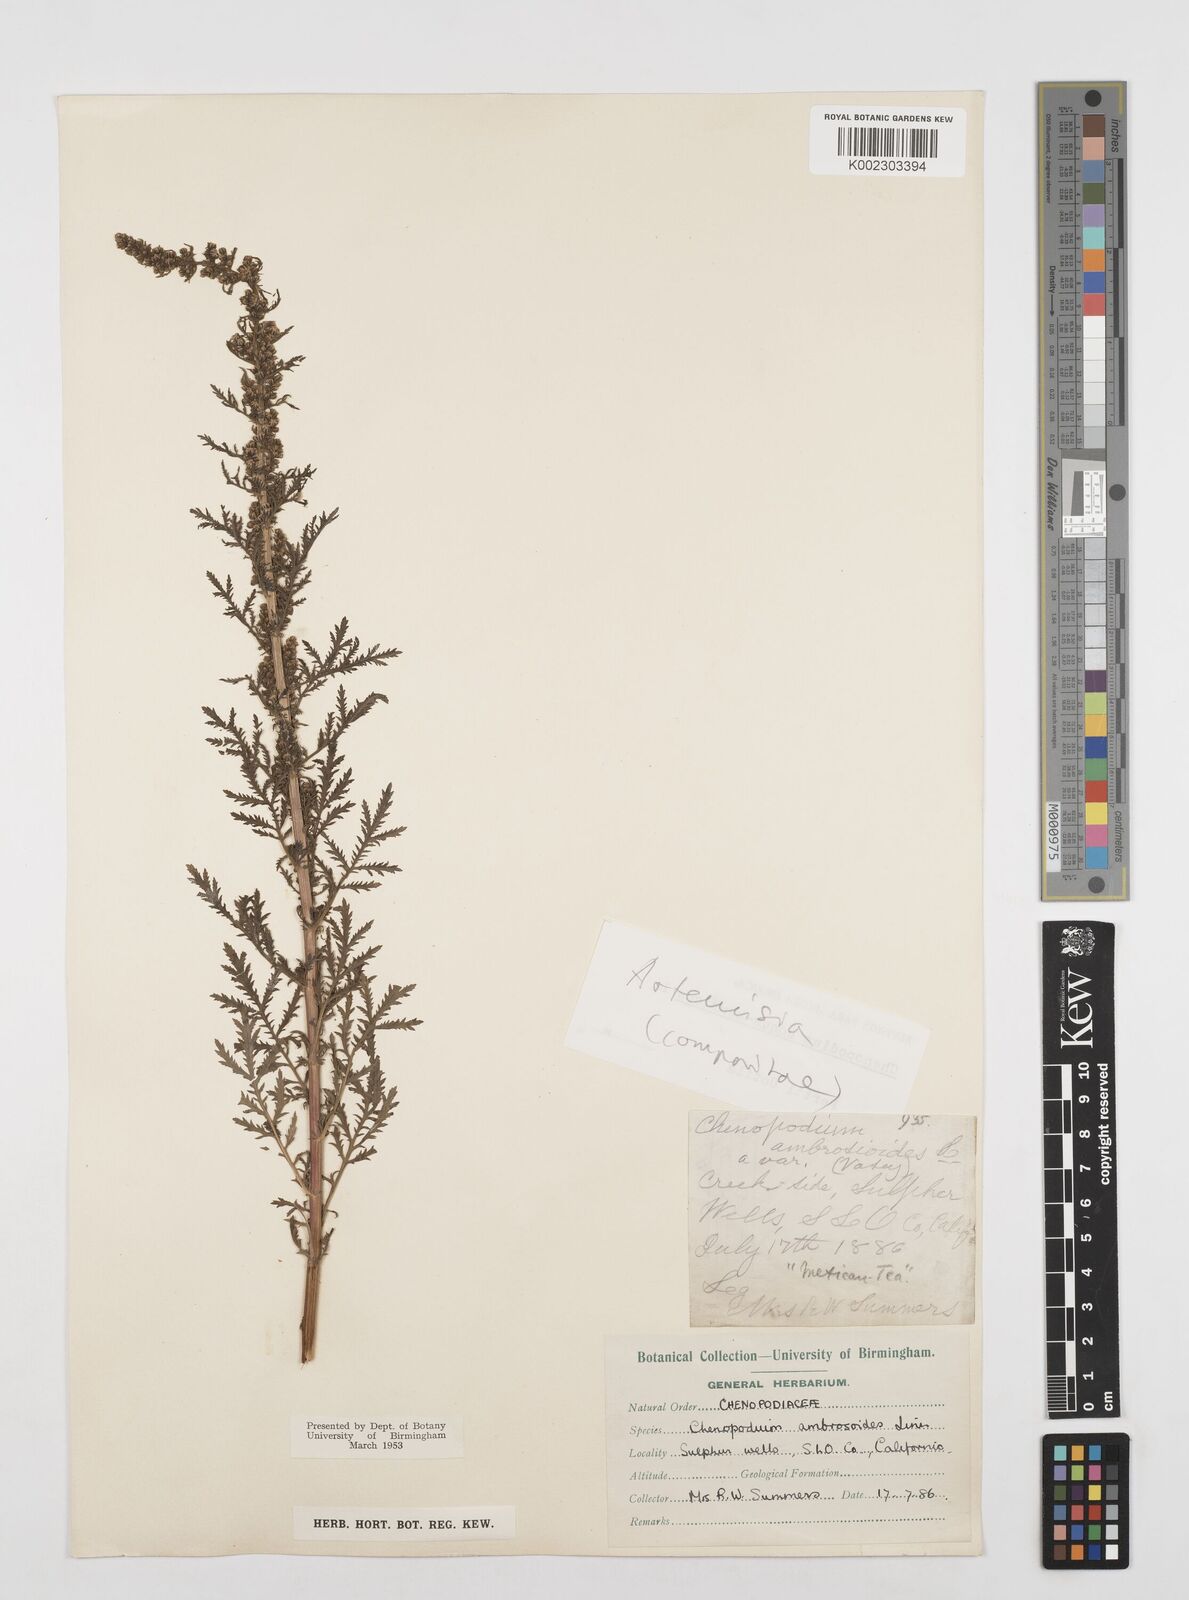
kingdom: Plantae
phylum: Tracheophyta
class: Magnoliopsida
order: Asterales
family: Asteraceae
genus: Artemisia
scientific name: Artemisia
